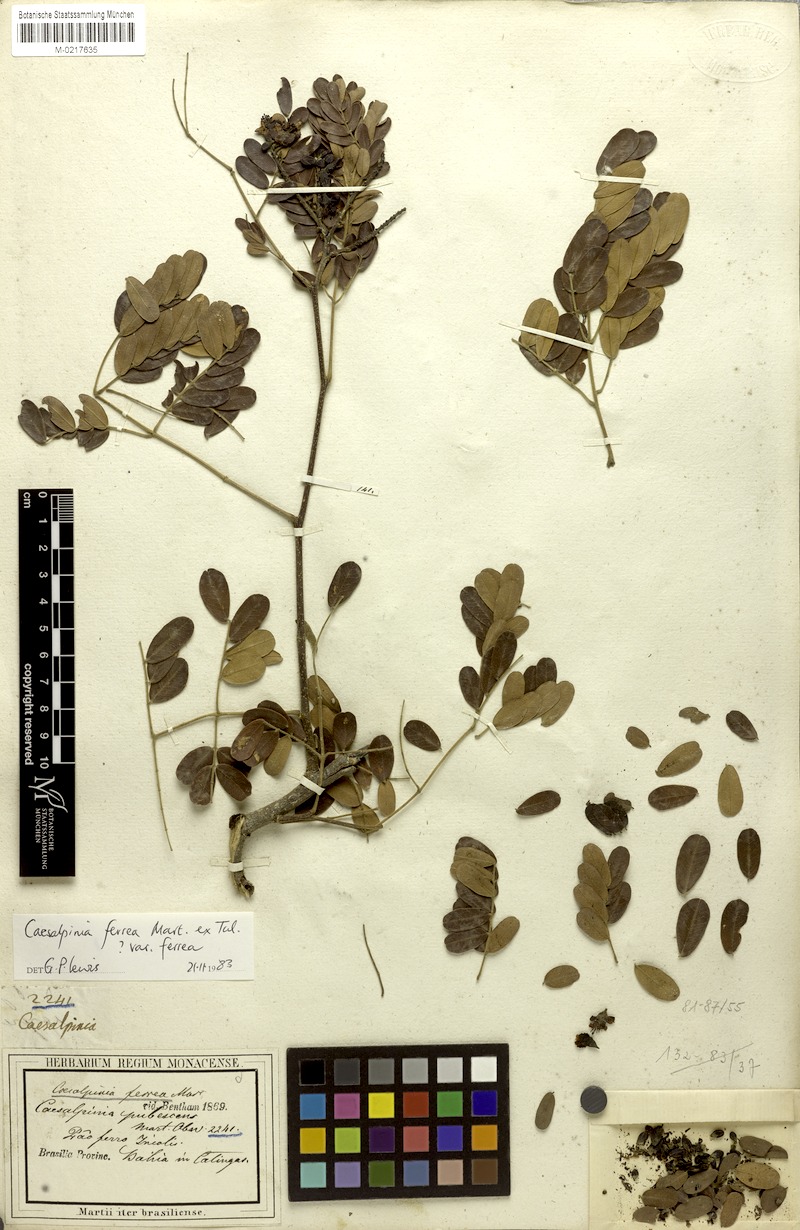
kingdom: Plantae
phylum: Tracheophyta
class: Magnoliopsida
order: Fabales
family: Fabaceae
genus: Libidibia
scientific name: Libidibia ferrea
